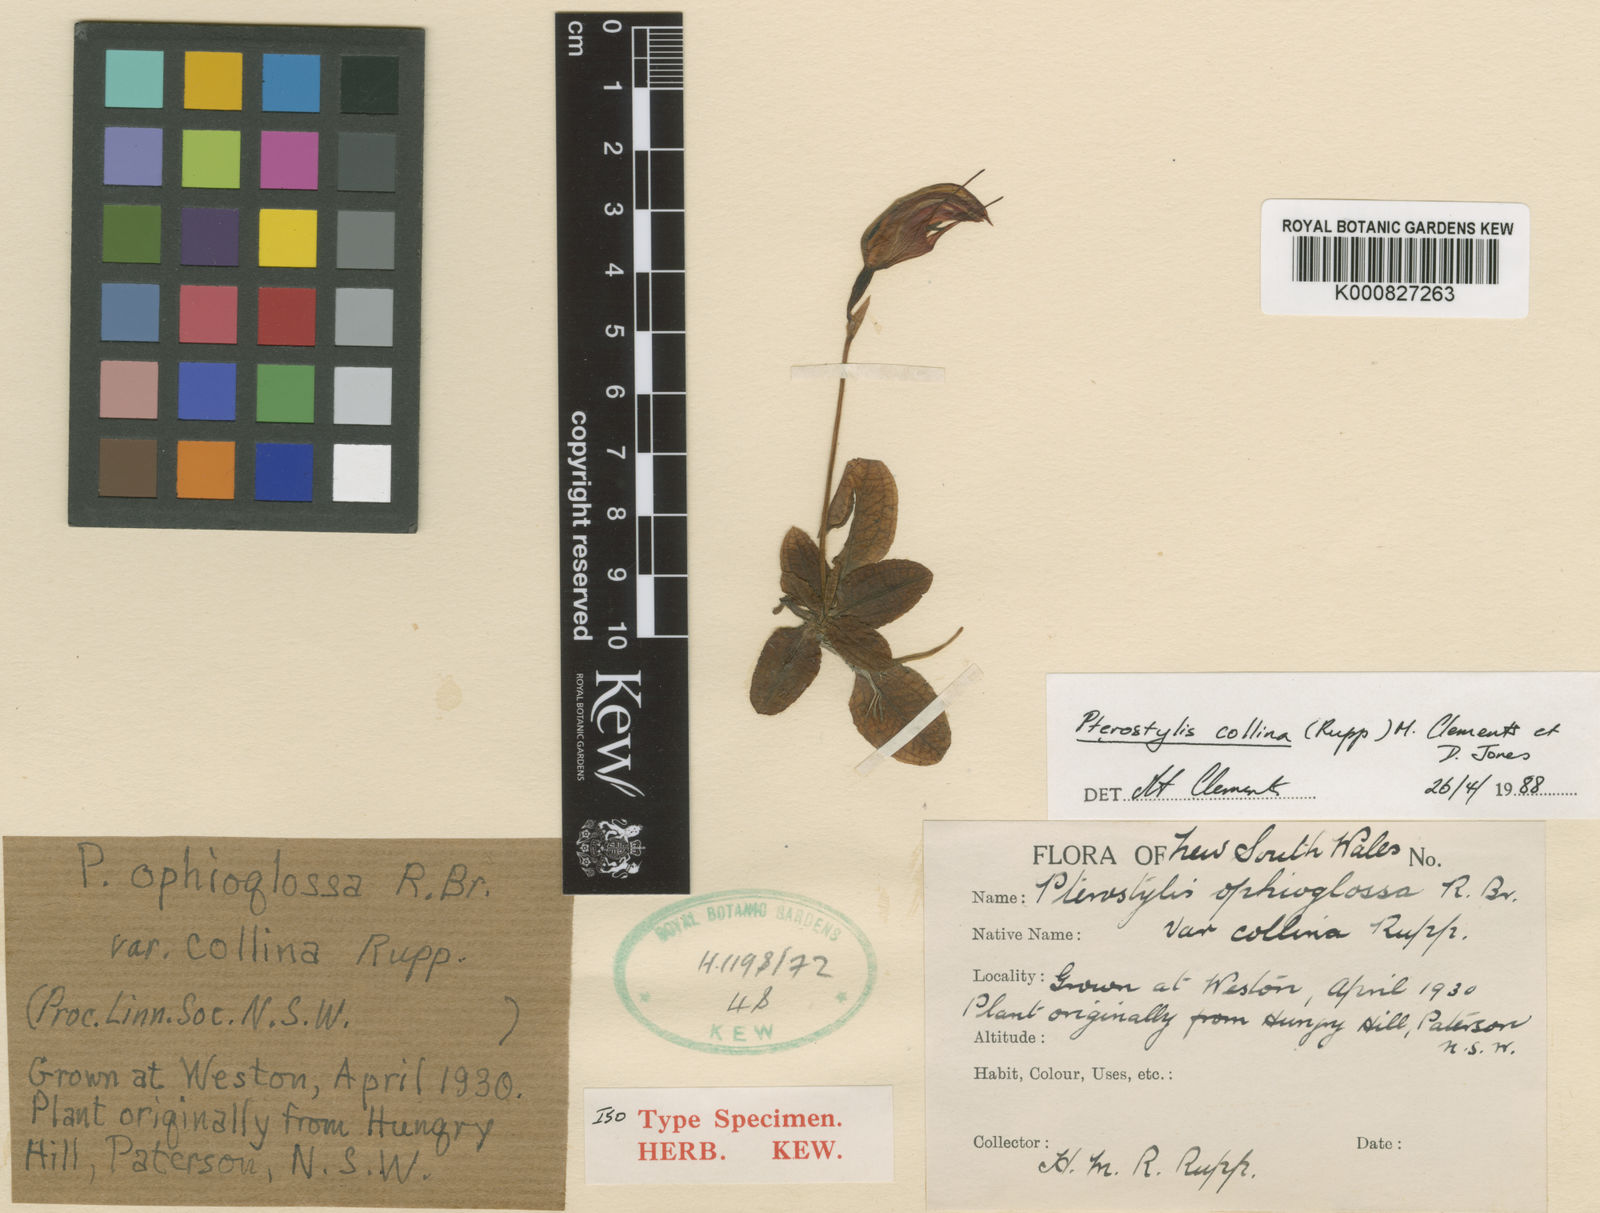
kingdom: Plantae
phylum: Tracheophyta
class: Liliopsida
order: Asparagales
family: Orchidaceae
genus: Pterostylis
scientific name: Pterostylis collina
